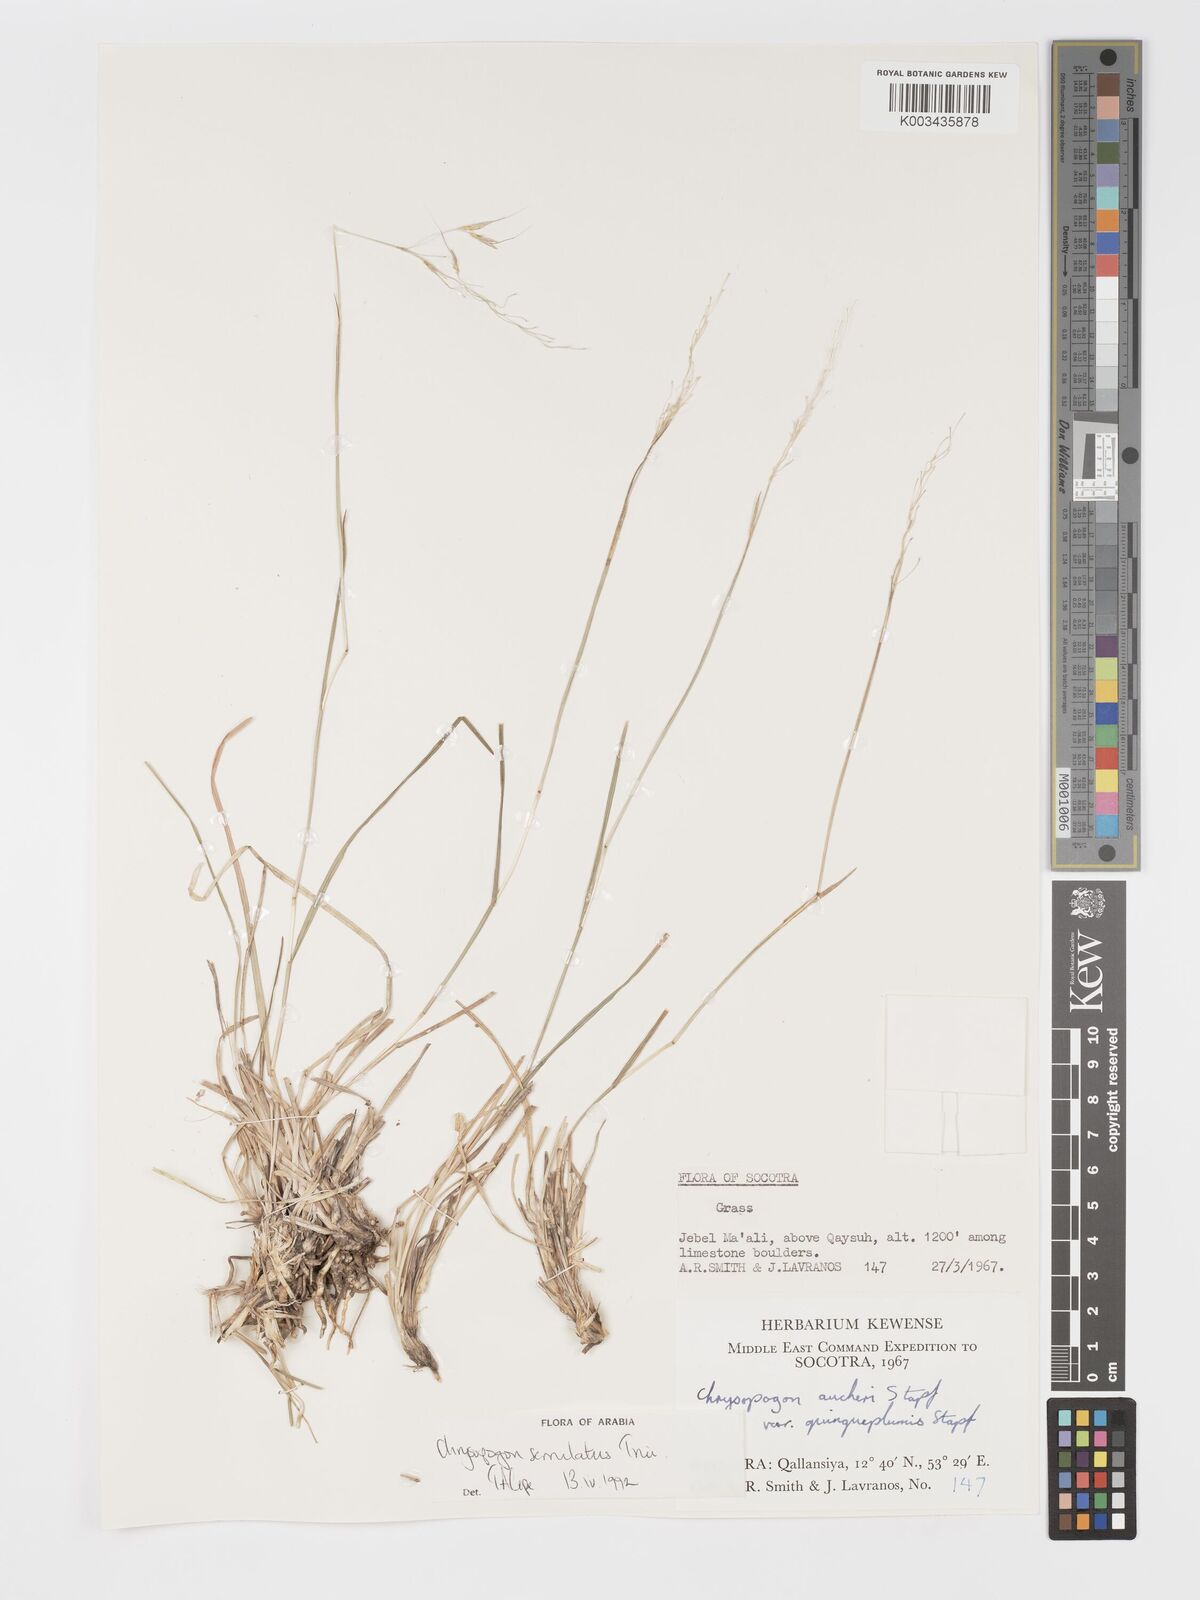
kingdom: Plantae
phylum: Tracheophyta
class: Liliopsida
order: Poales
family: Poaceae
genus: Chrysopogon
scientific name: Chrysopogon serrulatus
